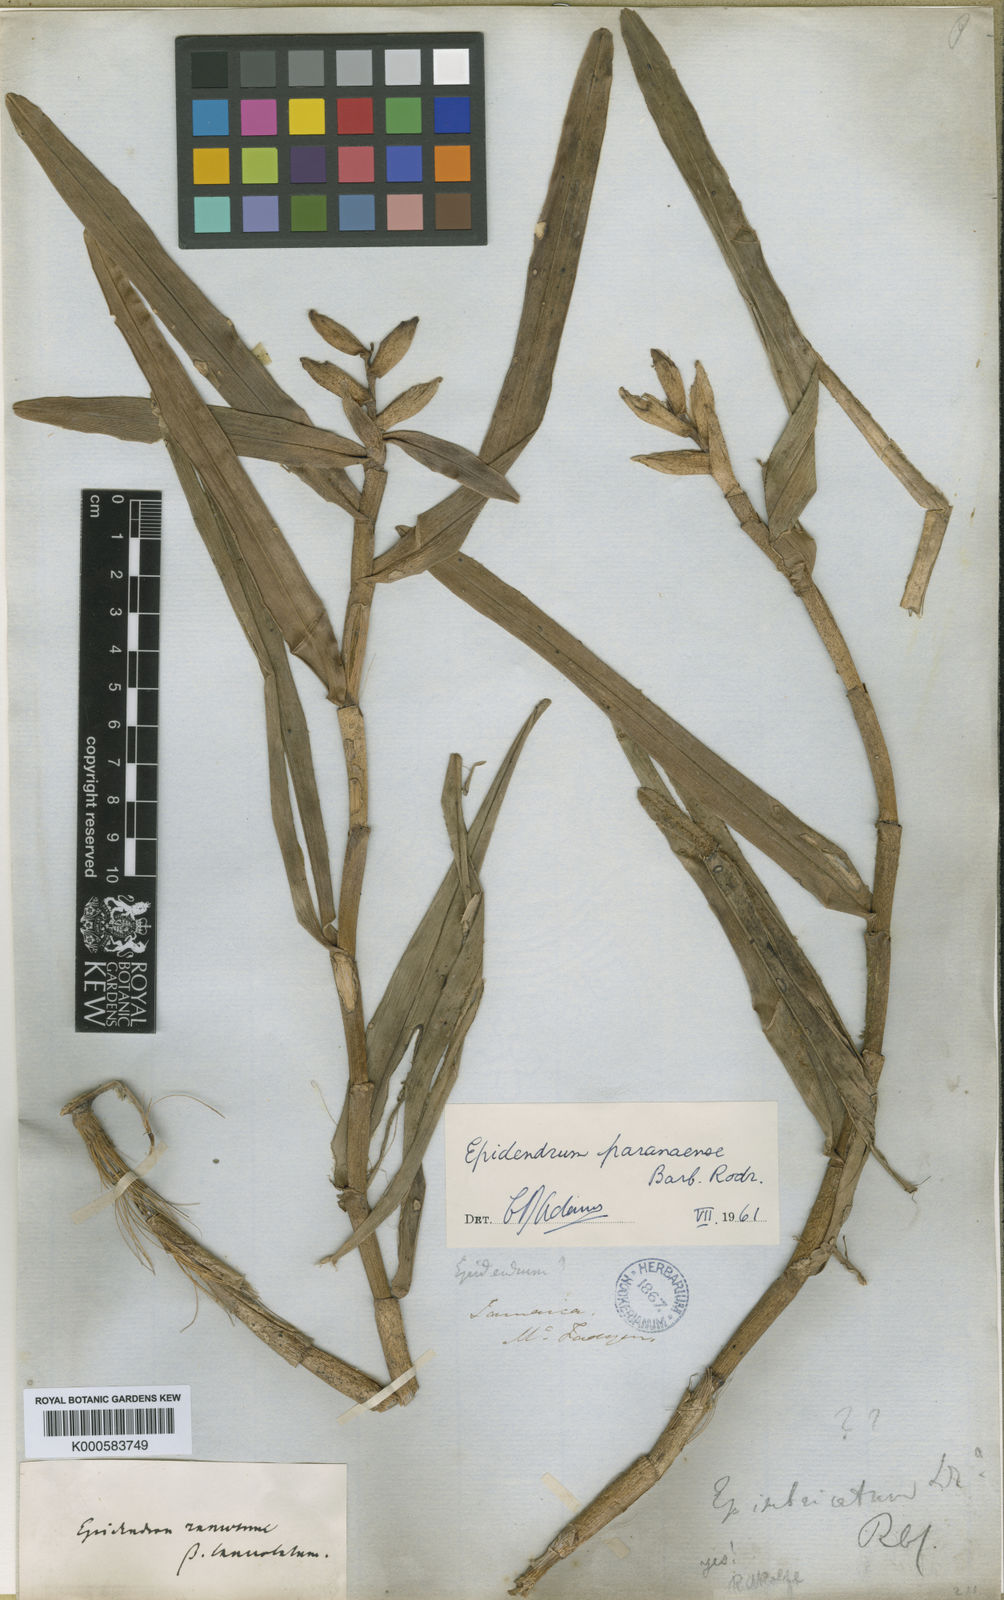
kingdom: Plantae
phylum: Tracheophyta
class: Liliopsida
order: Asparagales
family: Orchidaceae
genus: Epidendrum
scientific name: Epidendrum paranaense
